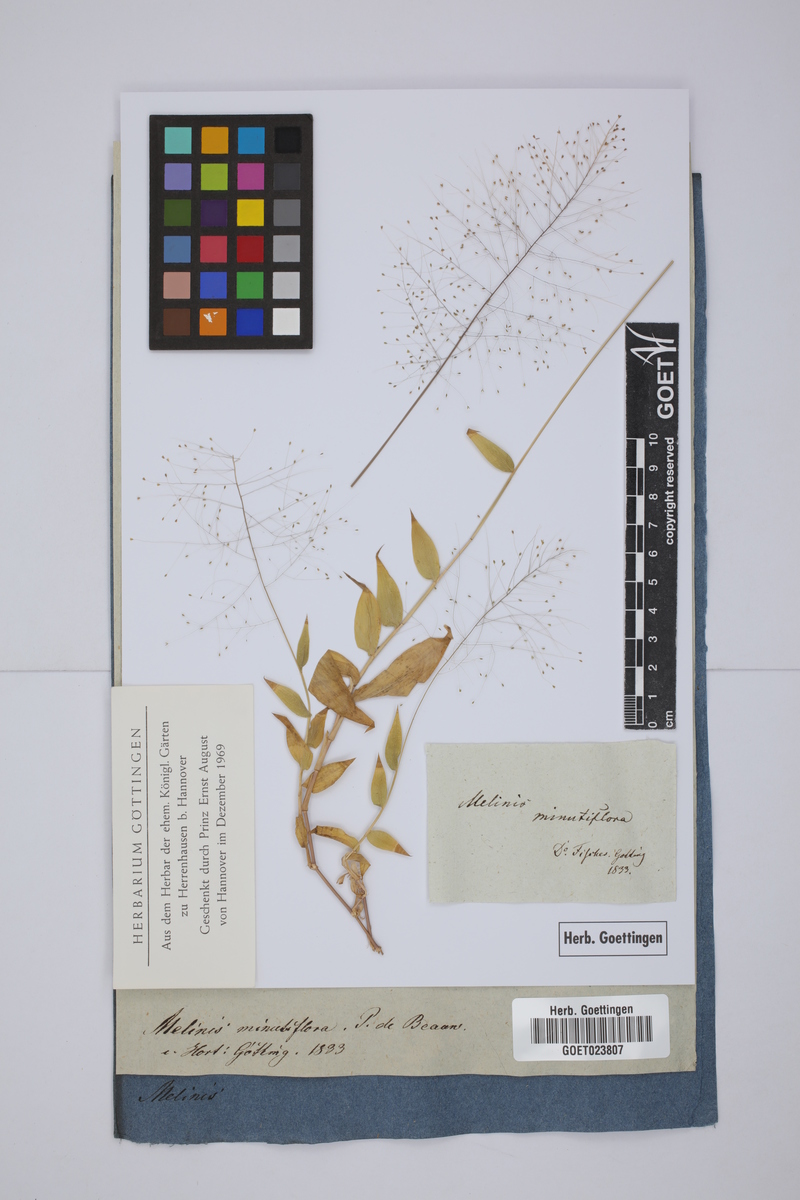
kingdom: Plantae
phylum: Tracheophyta
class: Liliopsida
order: Poales
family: Poaceae
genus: Melinis
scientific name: Melinis minutiflora
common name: Molassesgrass
